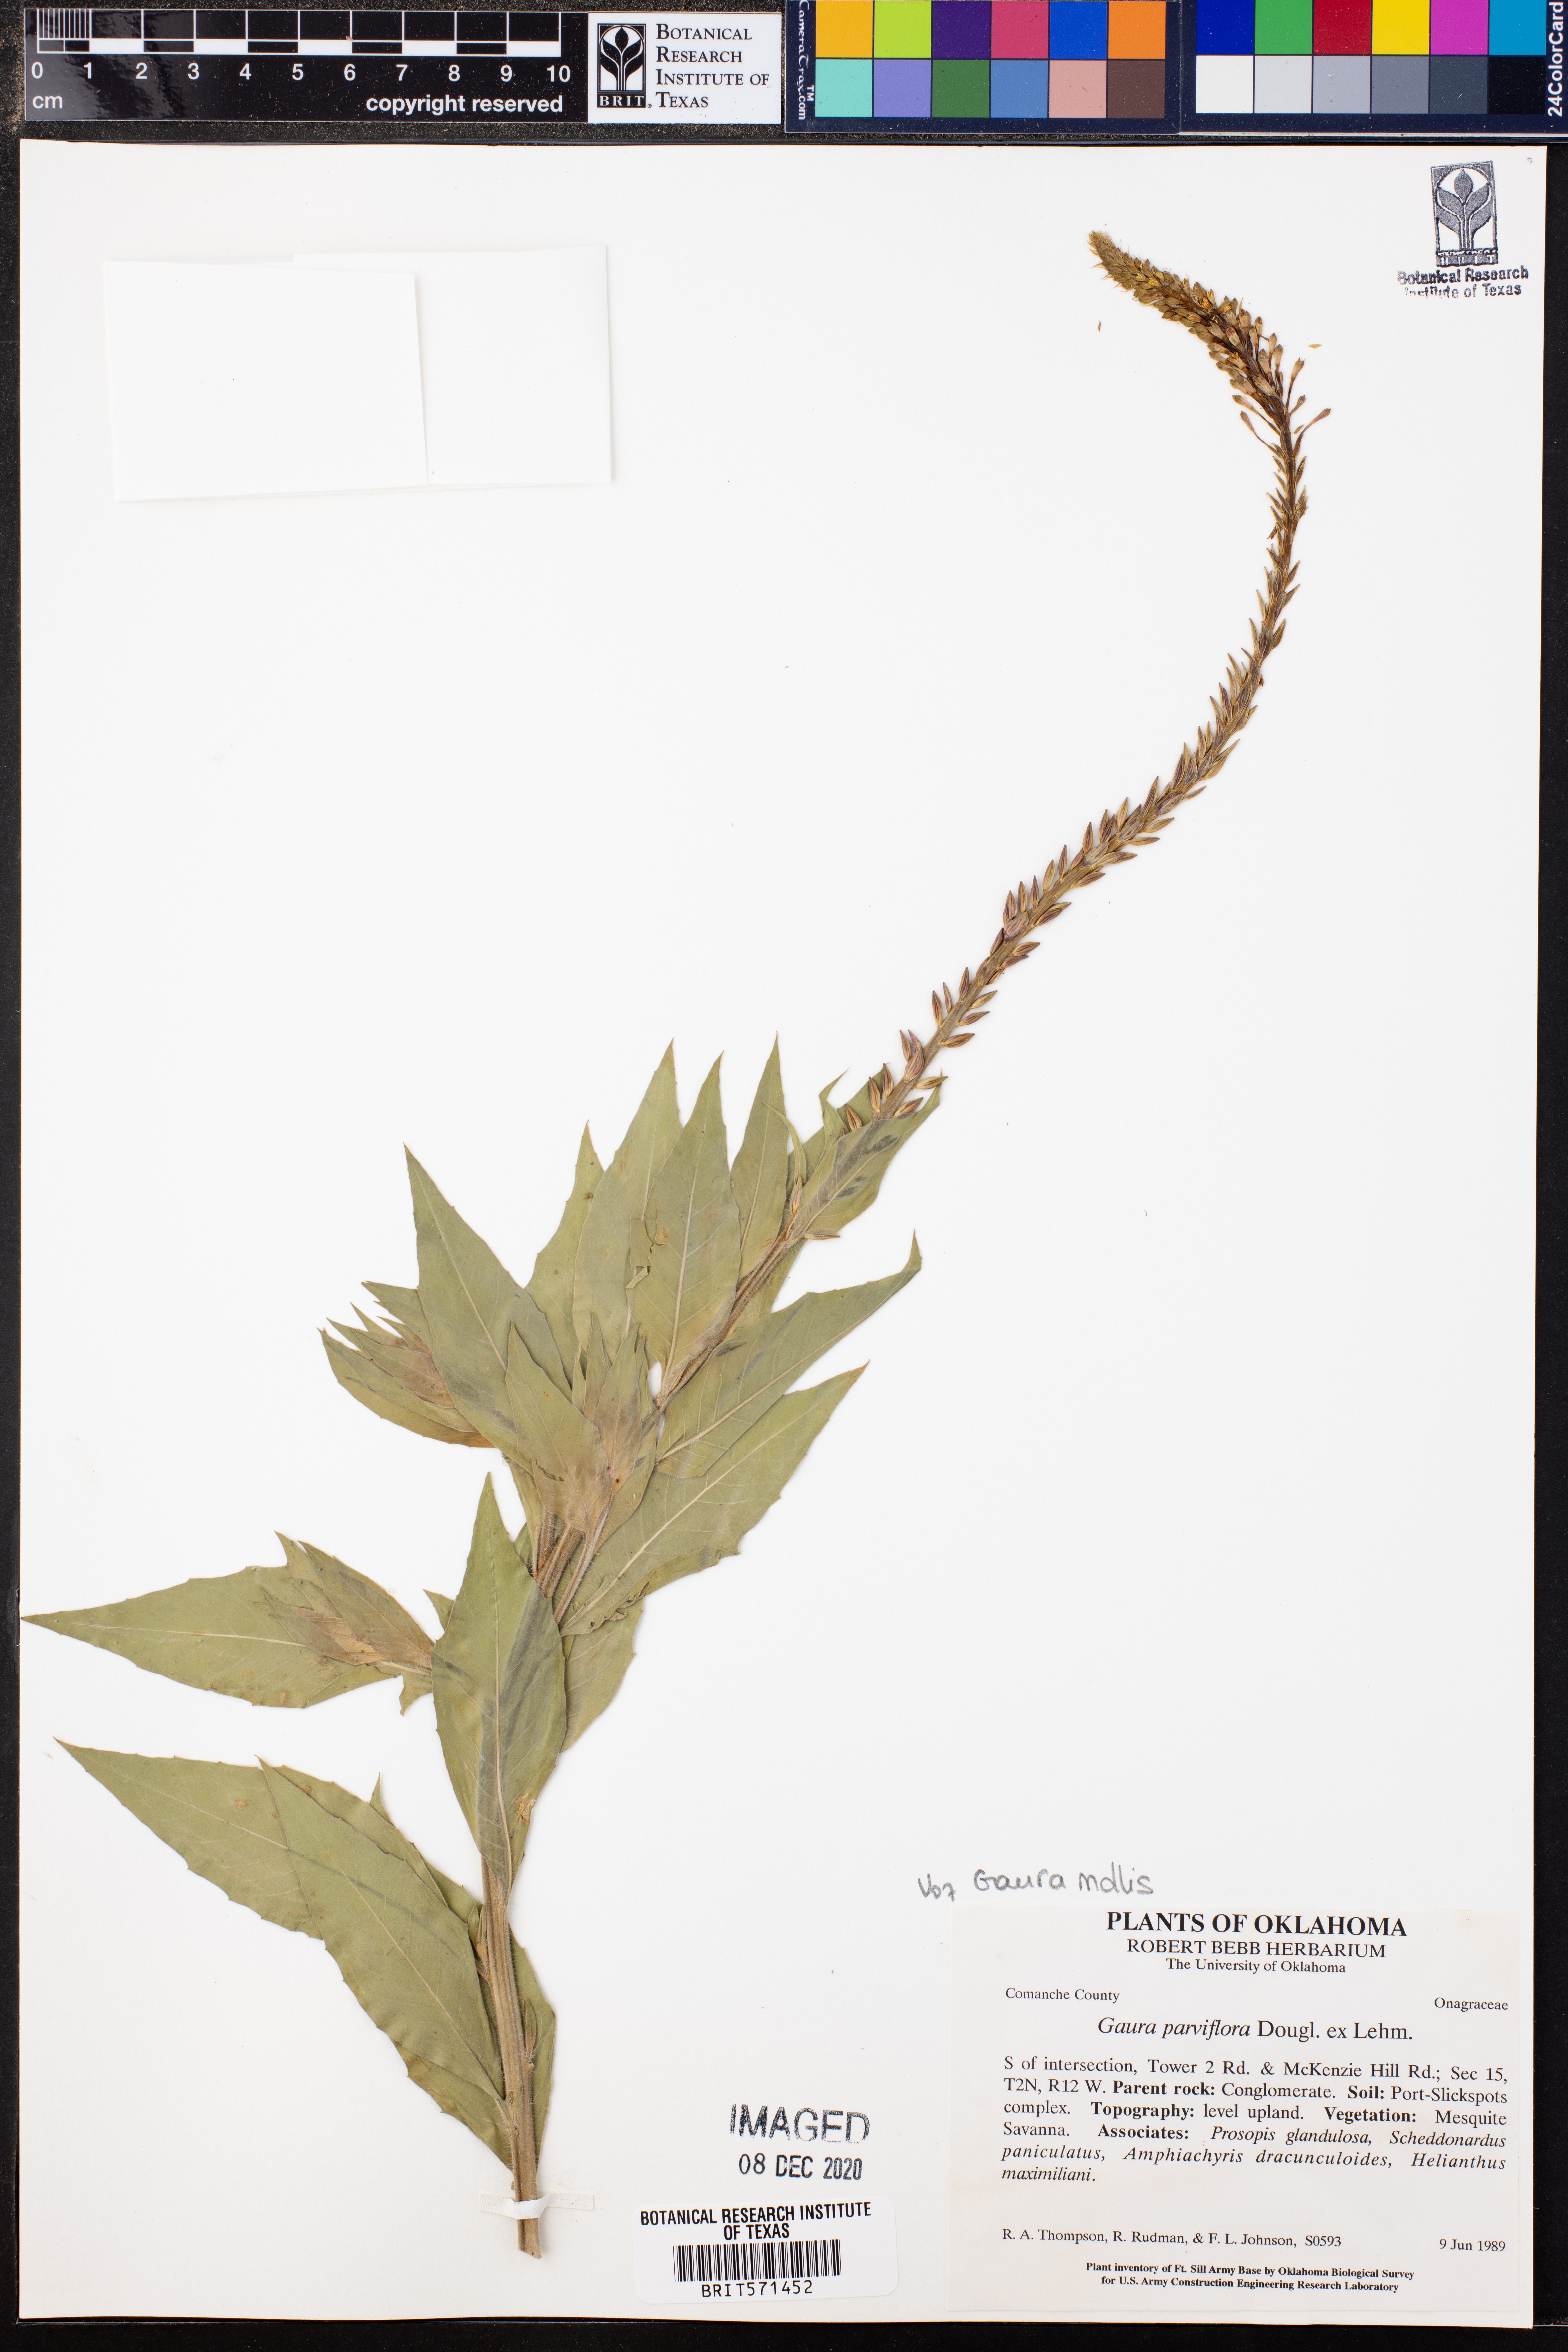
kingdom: Plantae
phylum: Tracheophyta
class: Magnoliopsida
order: Myrtales
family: Onagraceae
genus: Oenothera
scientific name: Oenothera curtiflora
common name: Velvetweed
